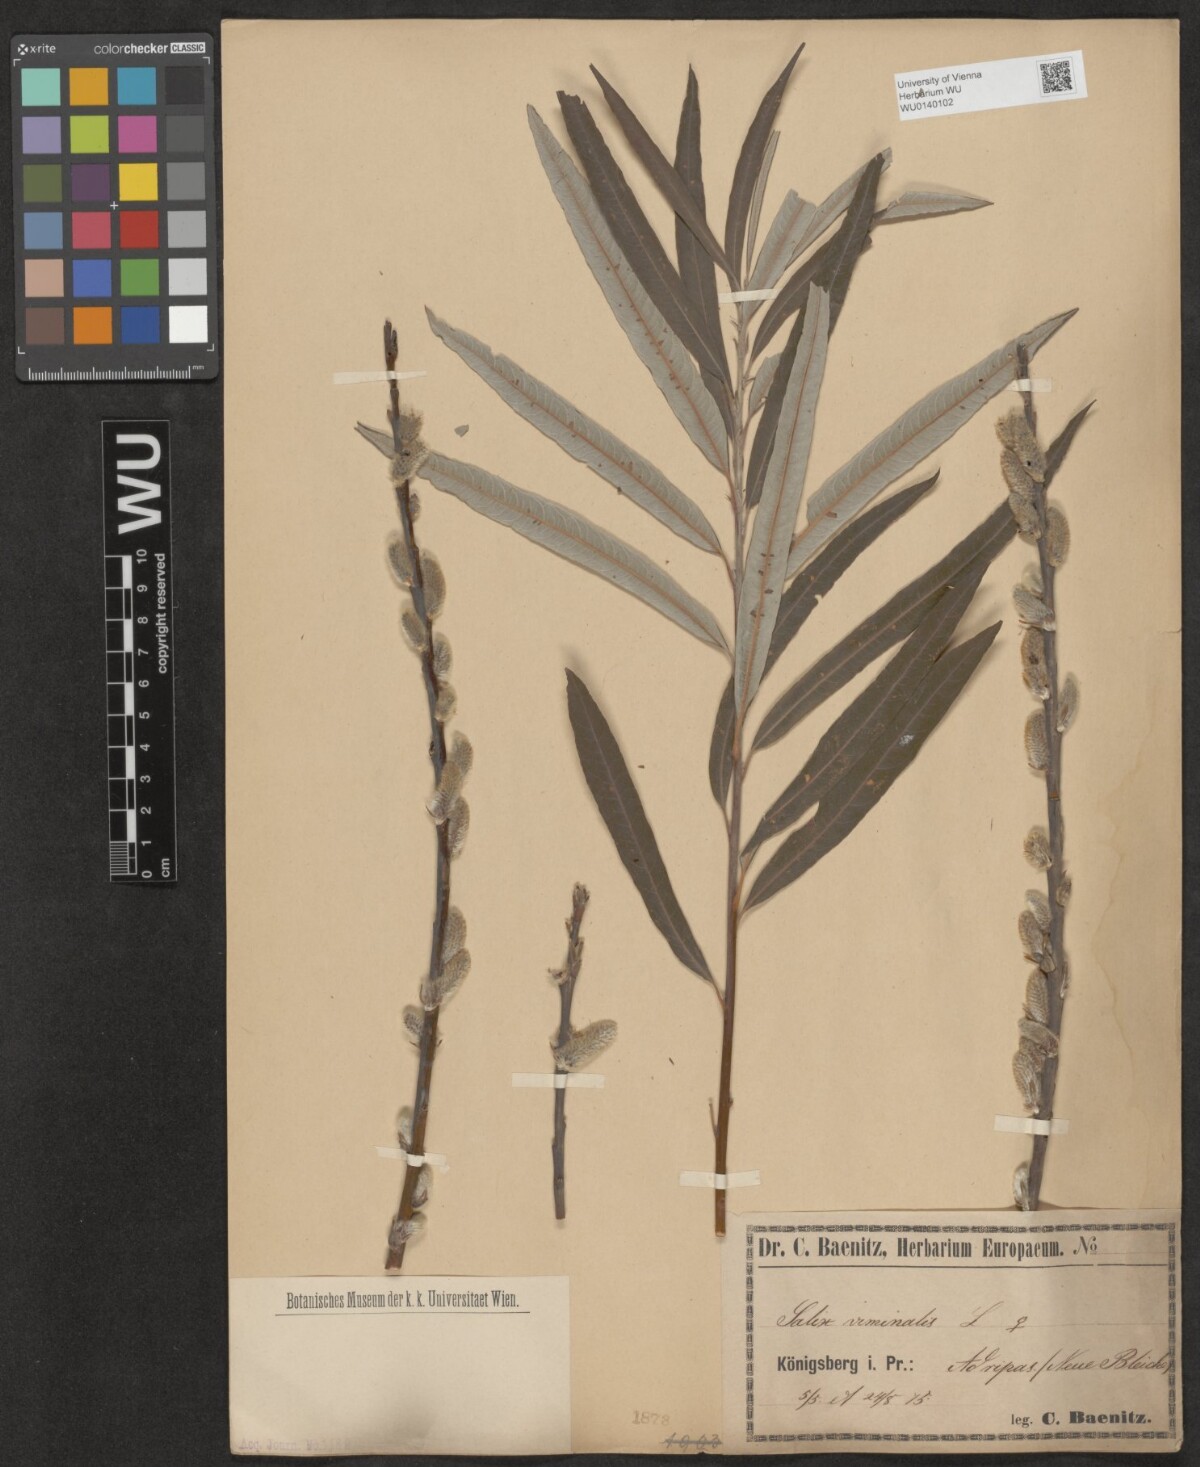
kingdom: Plantae
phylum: Tracheophyta
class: Magnoliopsida
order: Malpighiales
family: Salicaceae
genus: Salix
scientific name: Salix viminalis
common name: Osier
